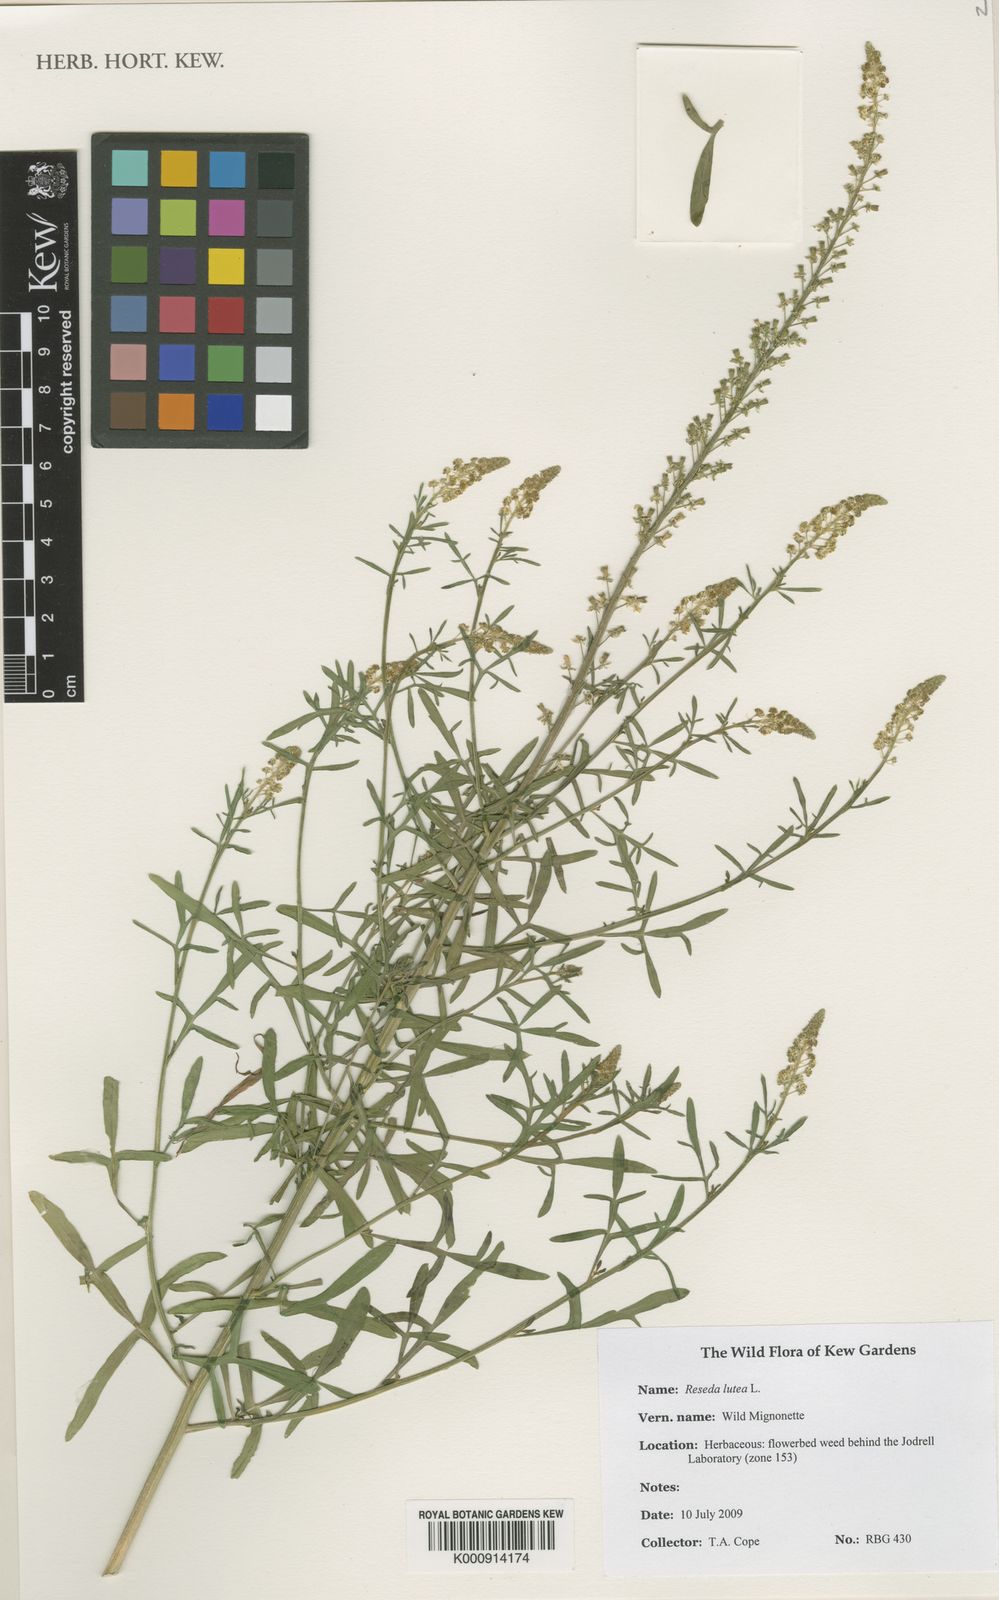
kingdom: Plantae
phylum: Tracheophyta
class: Magnoliopsida
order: Brassicales
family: Resedaceae
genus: Reseda
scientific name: Reseda lutea
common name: Wild mignonette
